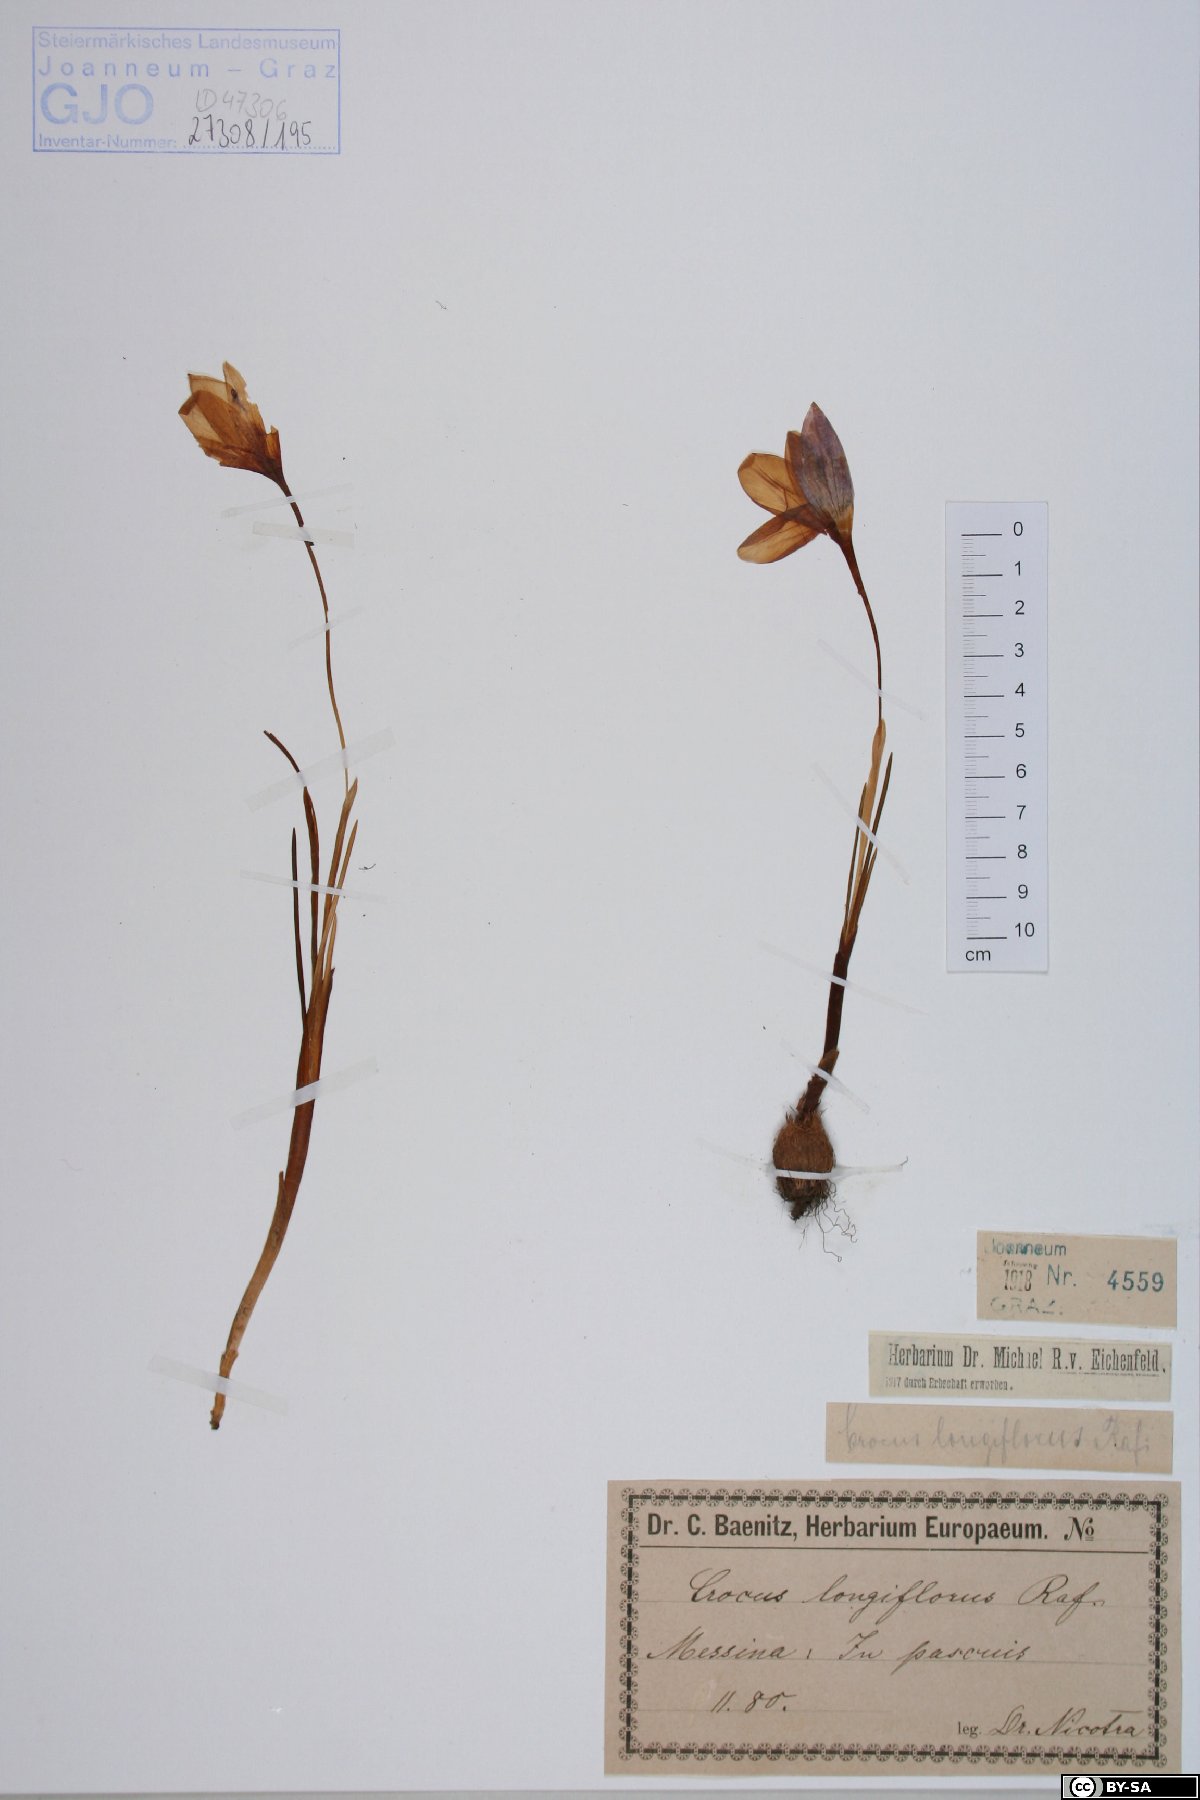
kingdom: Plantae
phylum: Tracheophyta
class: Liliopsida
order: Asparagales
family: Iridaceae
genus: Crocus
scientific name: Crocus longiflorus
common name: Italian crocus
